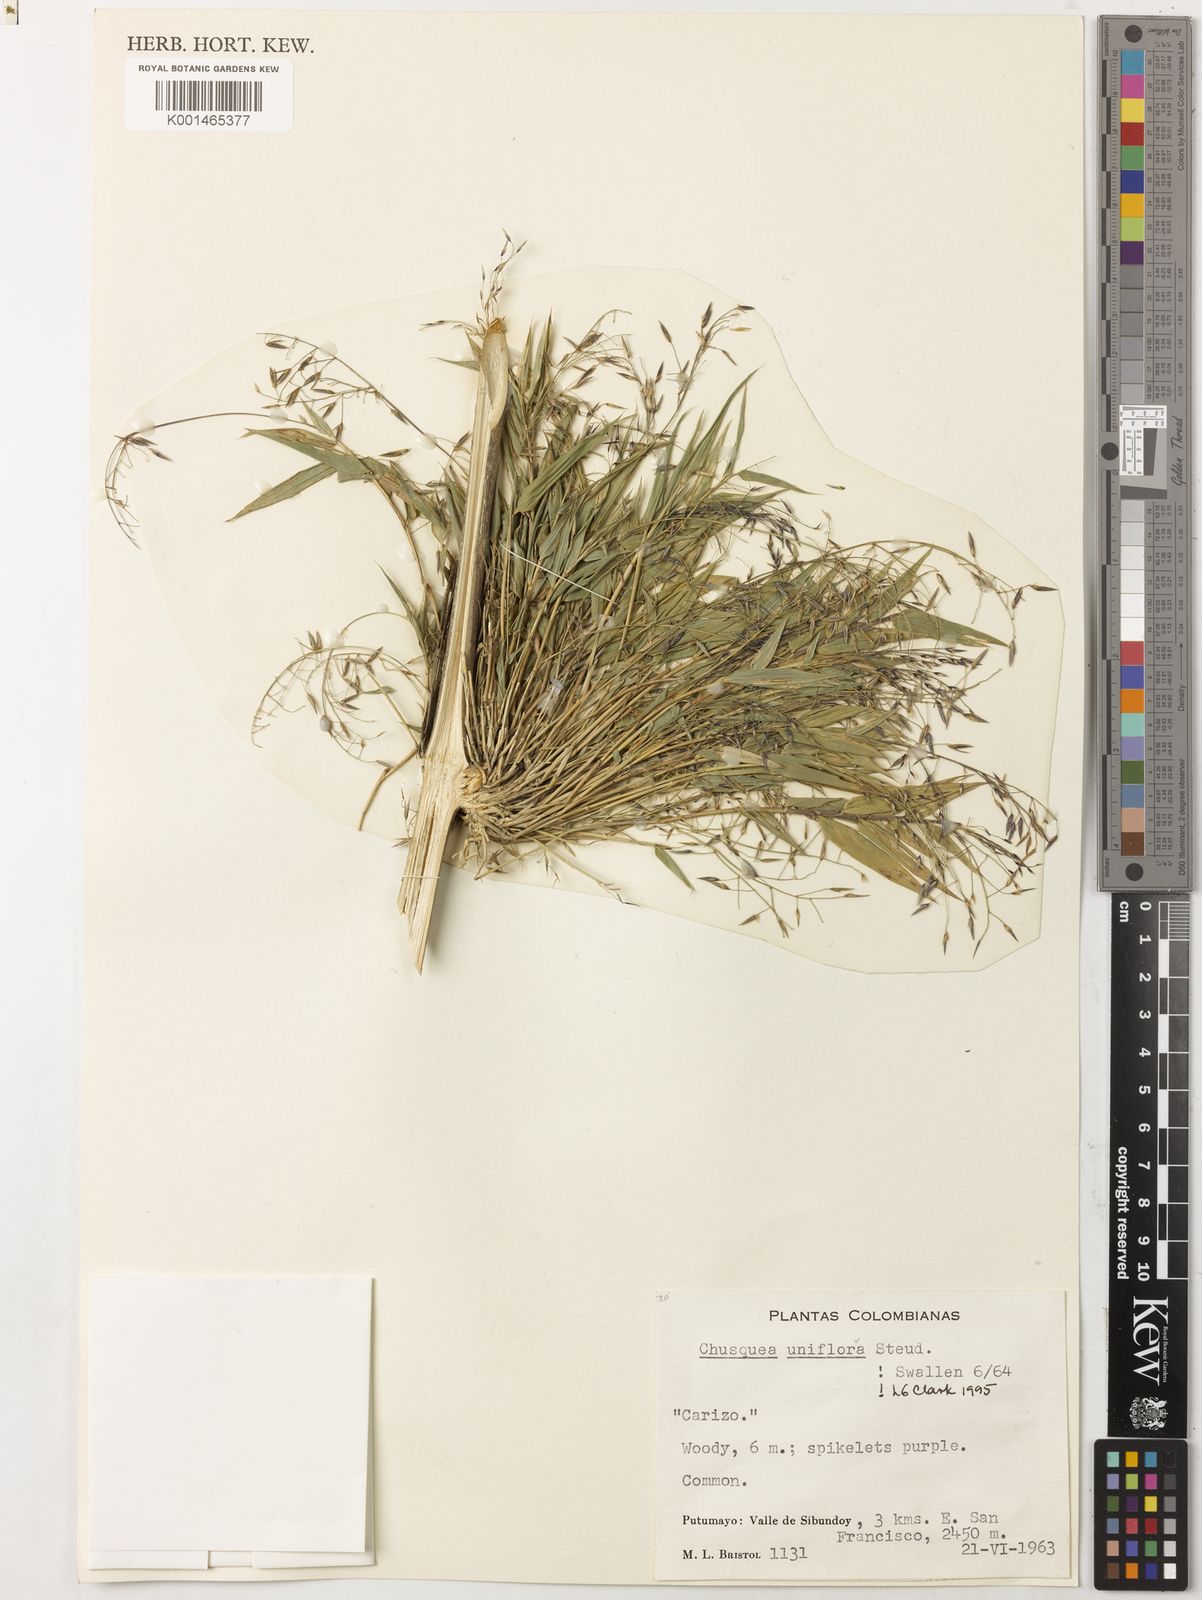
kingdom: Plantae
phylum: Tracheophyta
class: Liliopsida
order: Poales
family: Poaceae
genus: Chusquea
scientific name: Chusquea uniflora
